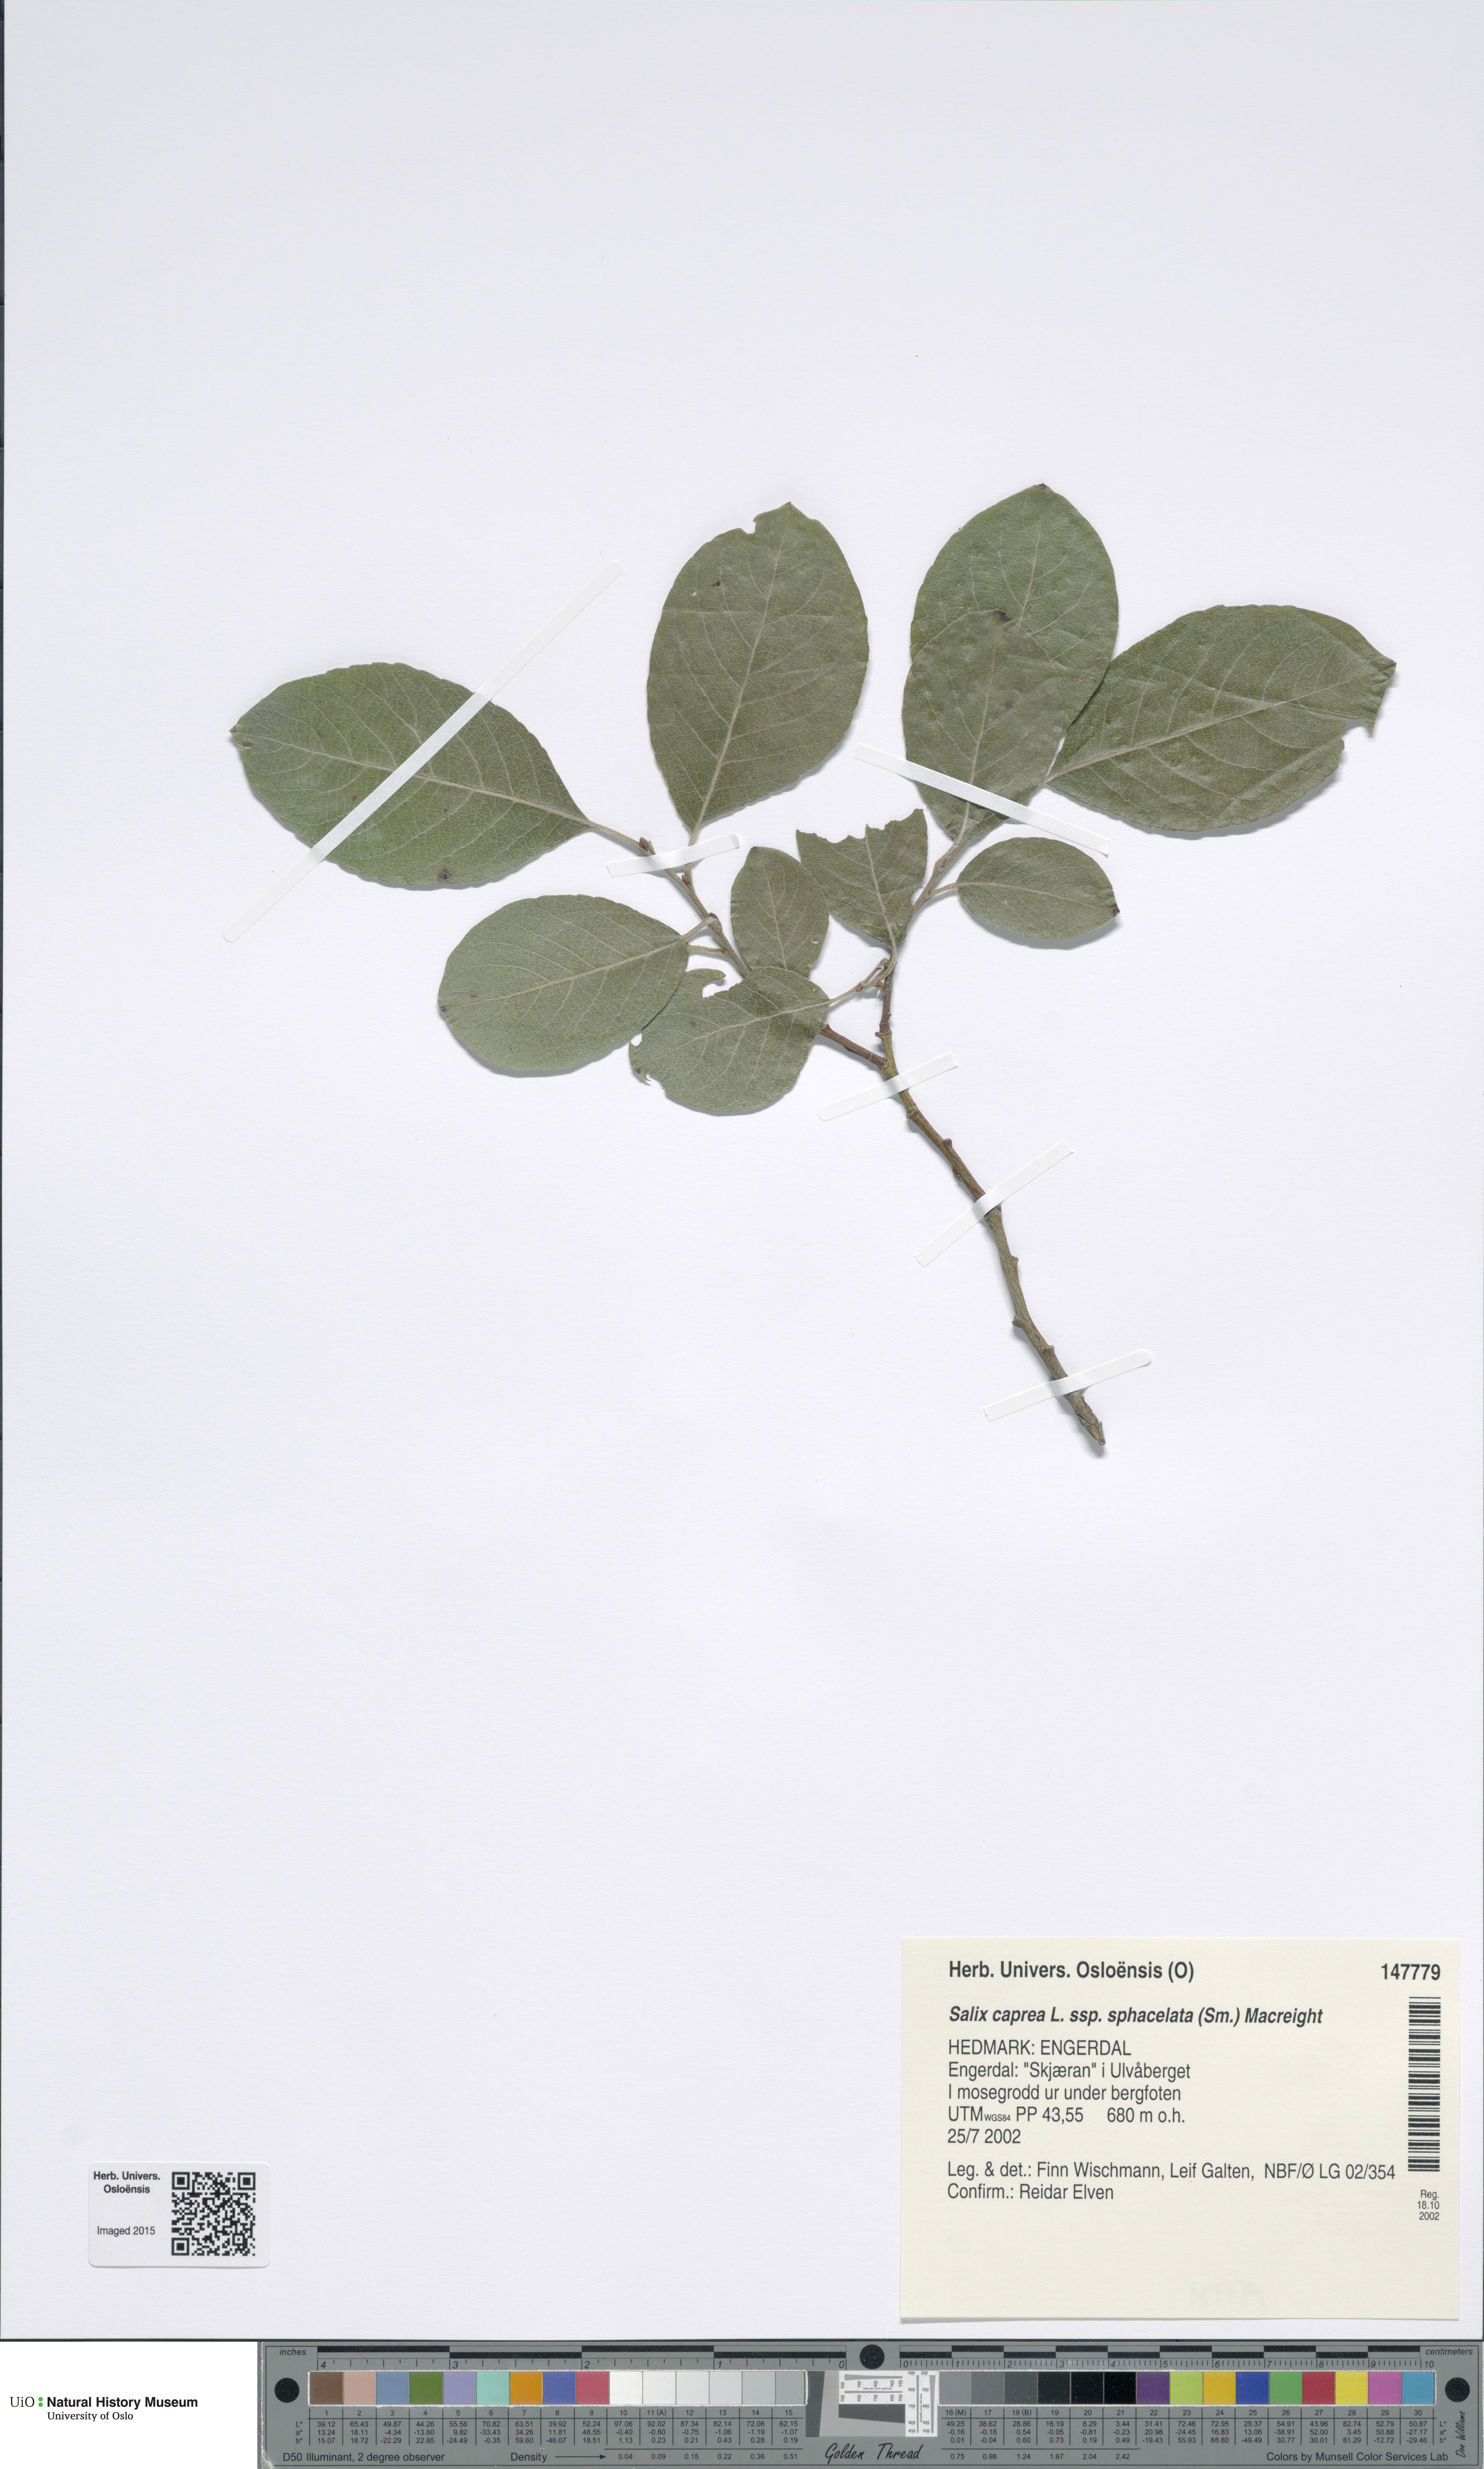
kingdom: Plantae
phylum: Tracheophyta
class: Magnoliopsida
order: Malpighiales
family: Salicaceae
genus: Salix
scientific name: Salix caprea
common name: Goat willow
